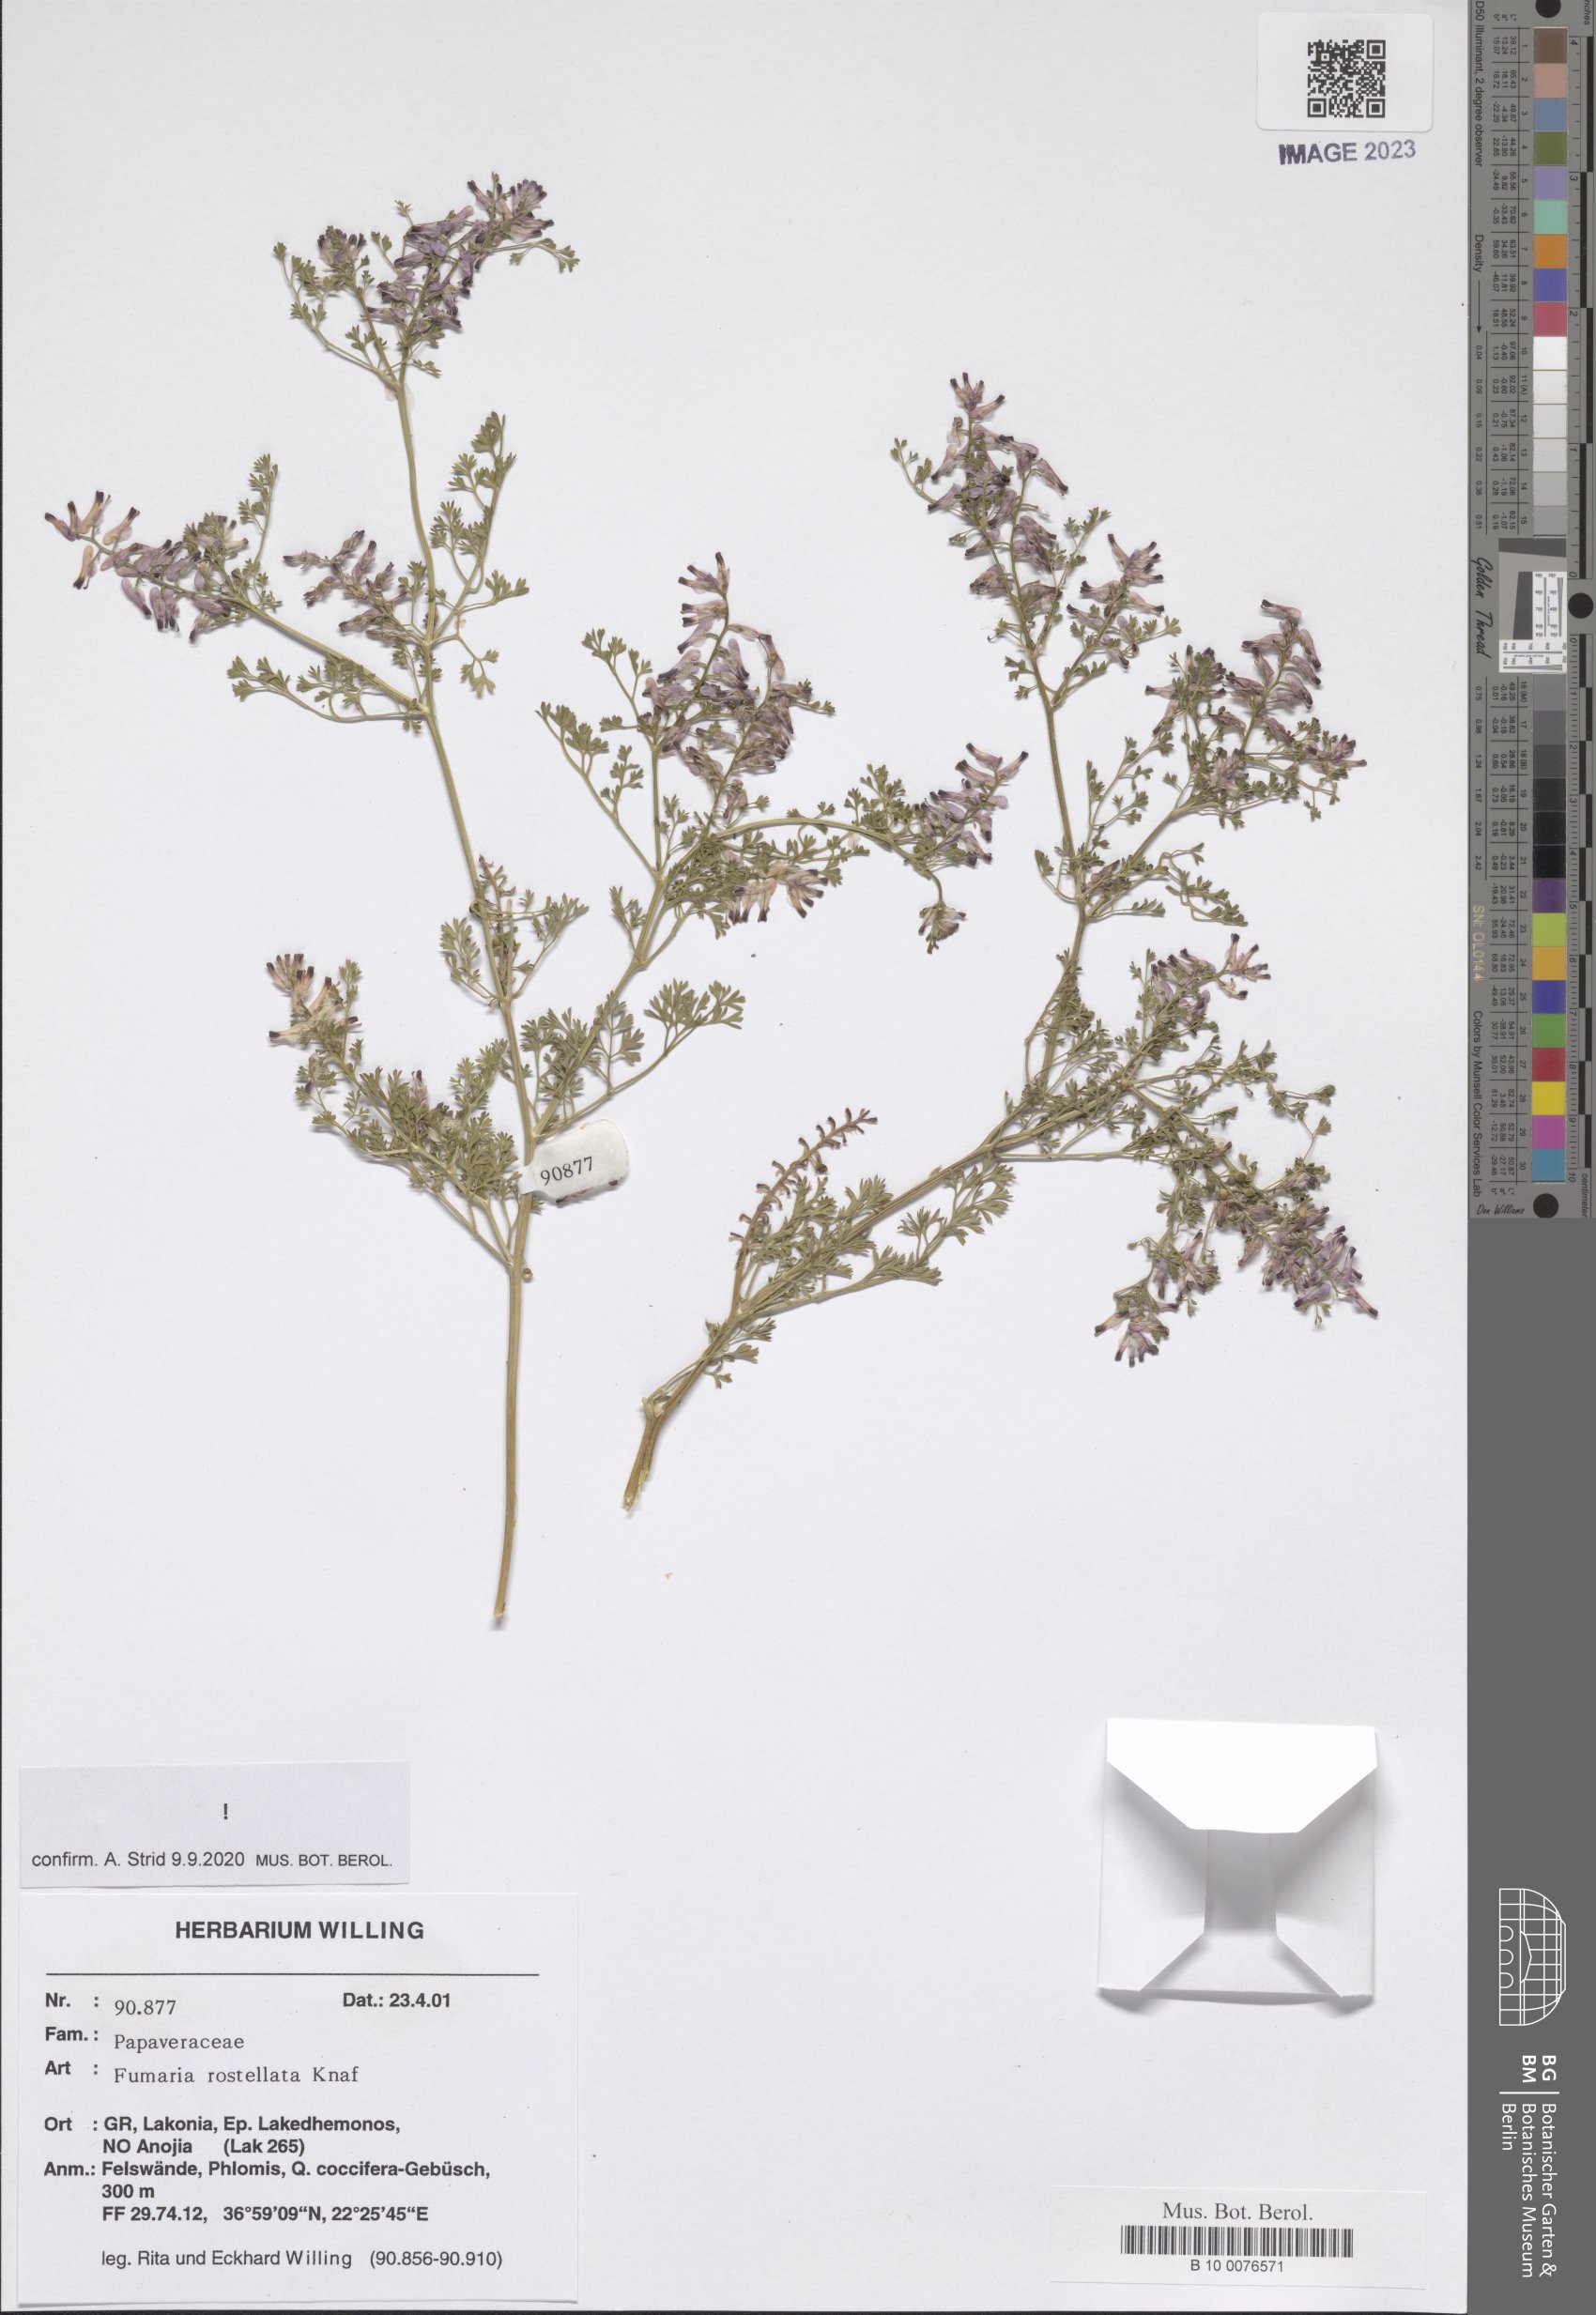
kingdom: Plantae
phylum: Tracheophyta
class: Magnoliopsida
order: Ranunculales
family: Papaveraceae
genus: Fumaria
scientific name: Fumaria rostellata
